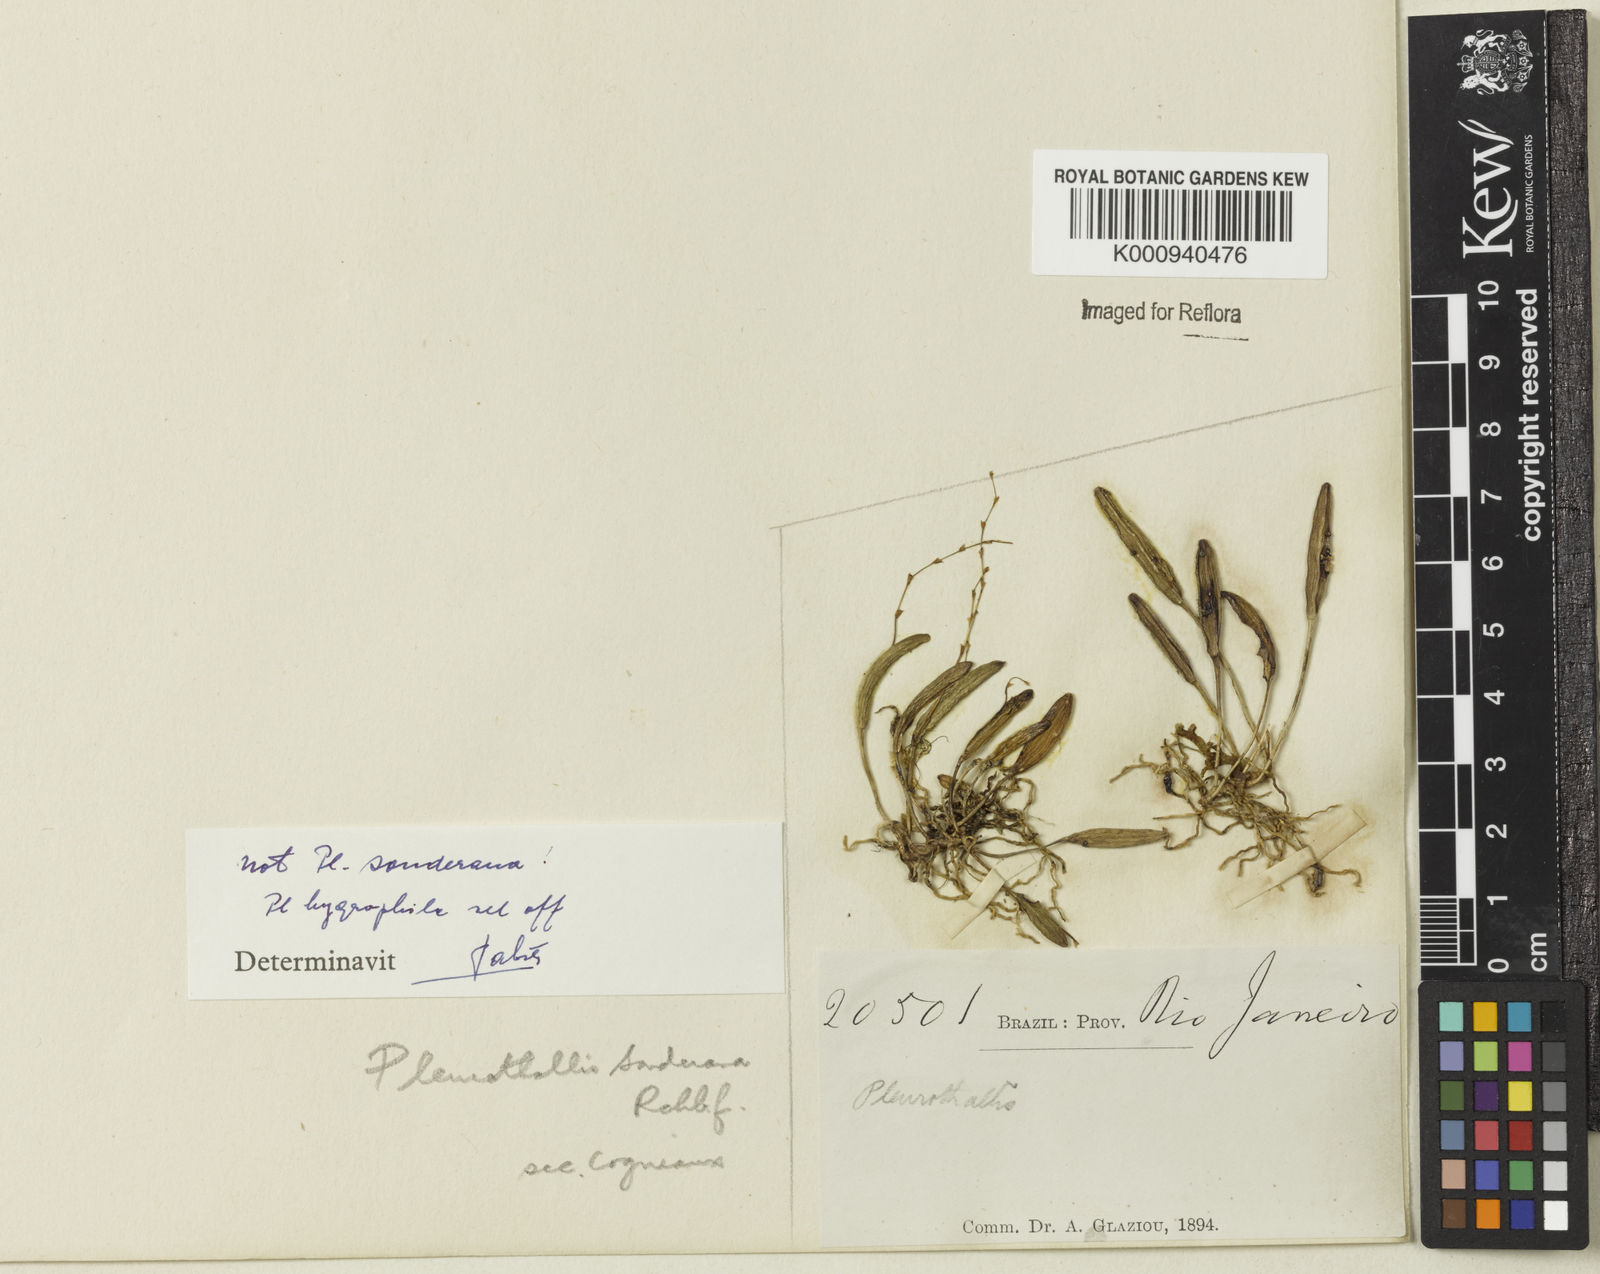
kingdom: Plantae
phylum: Tracheophyta
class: Liliopsida
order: Asparagales
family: Orchidaceae
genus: Acianthera
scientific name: Acianthera sonderiana
